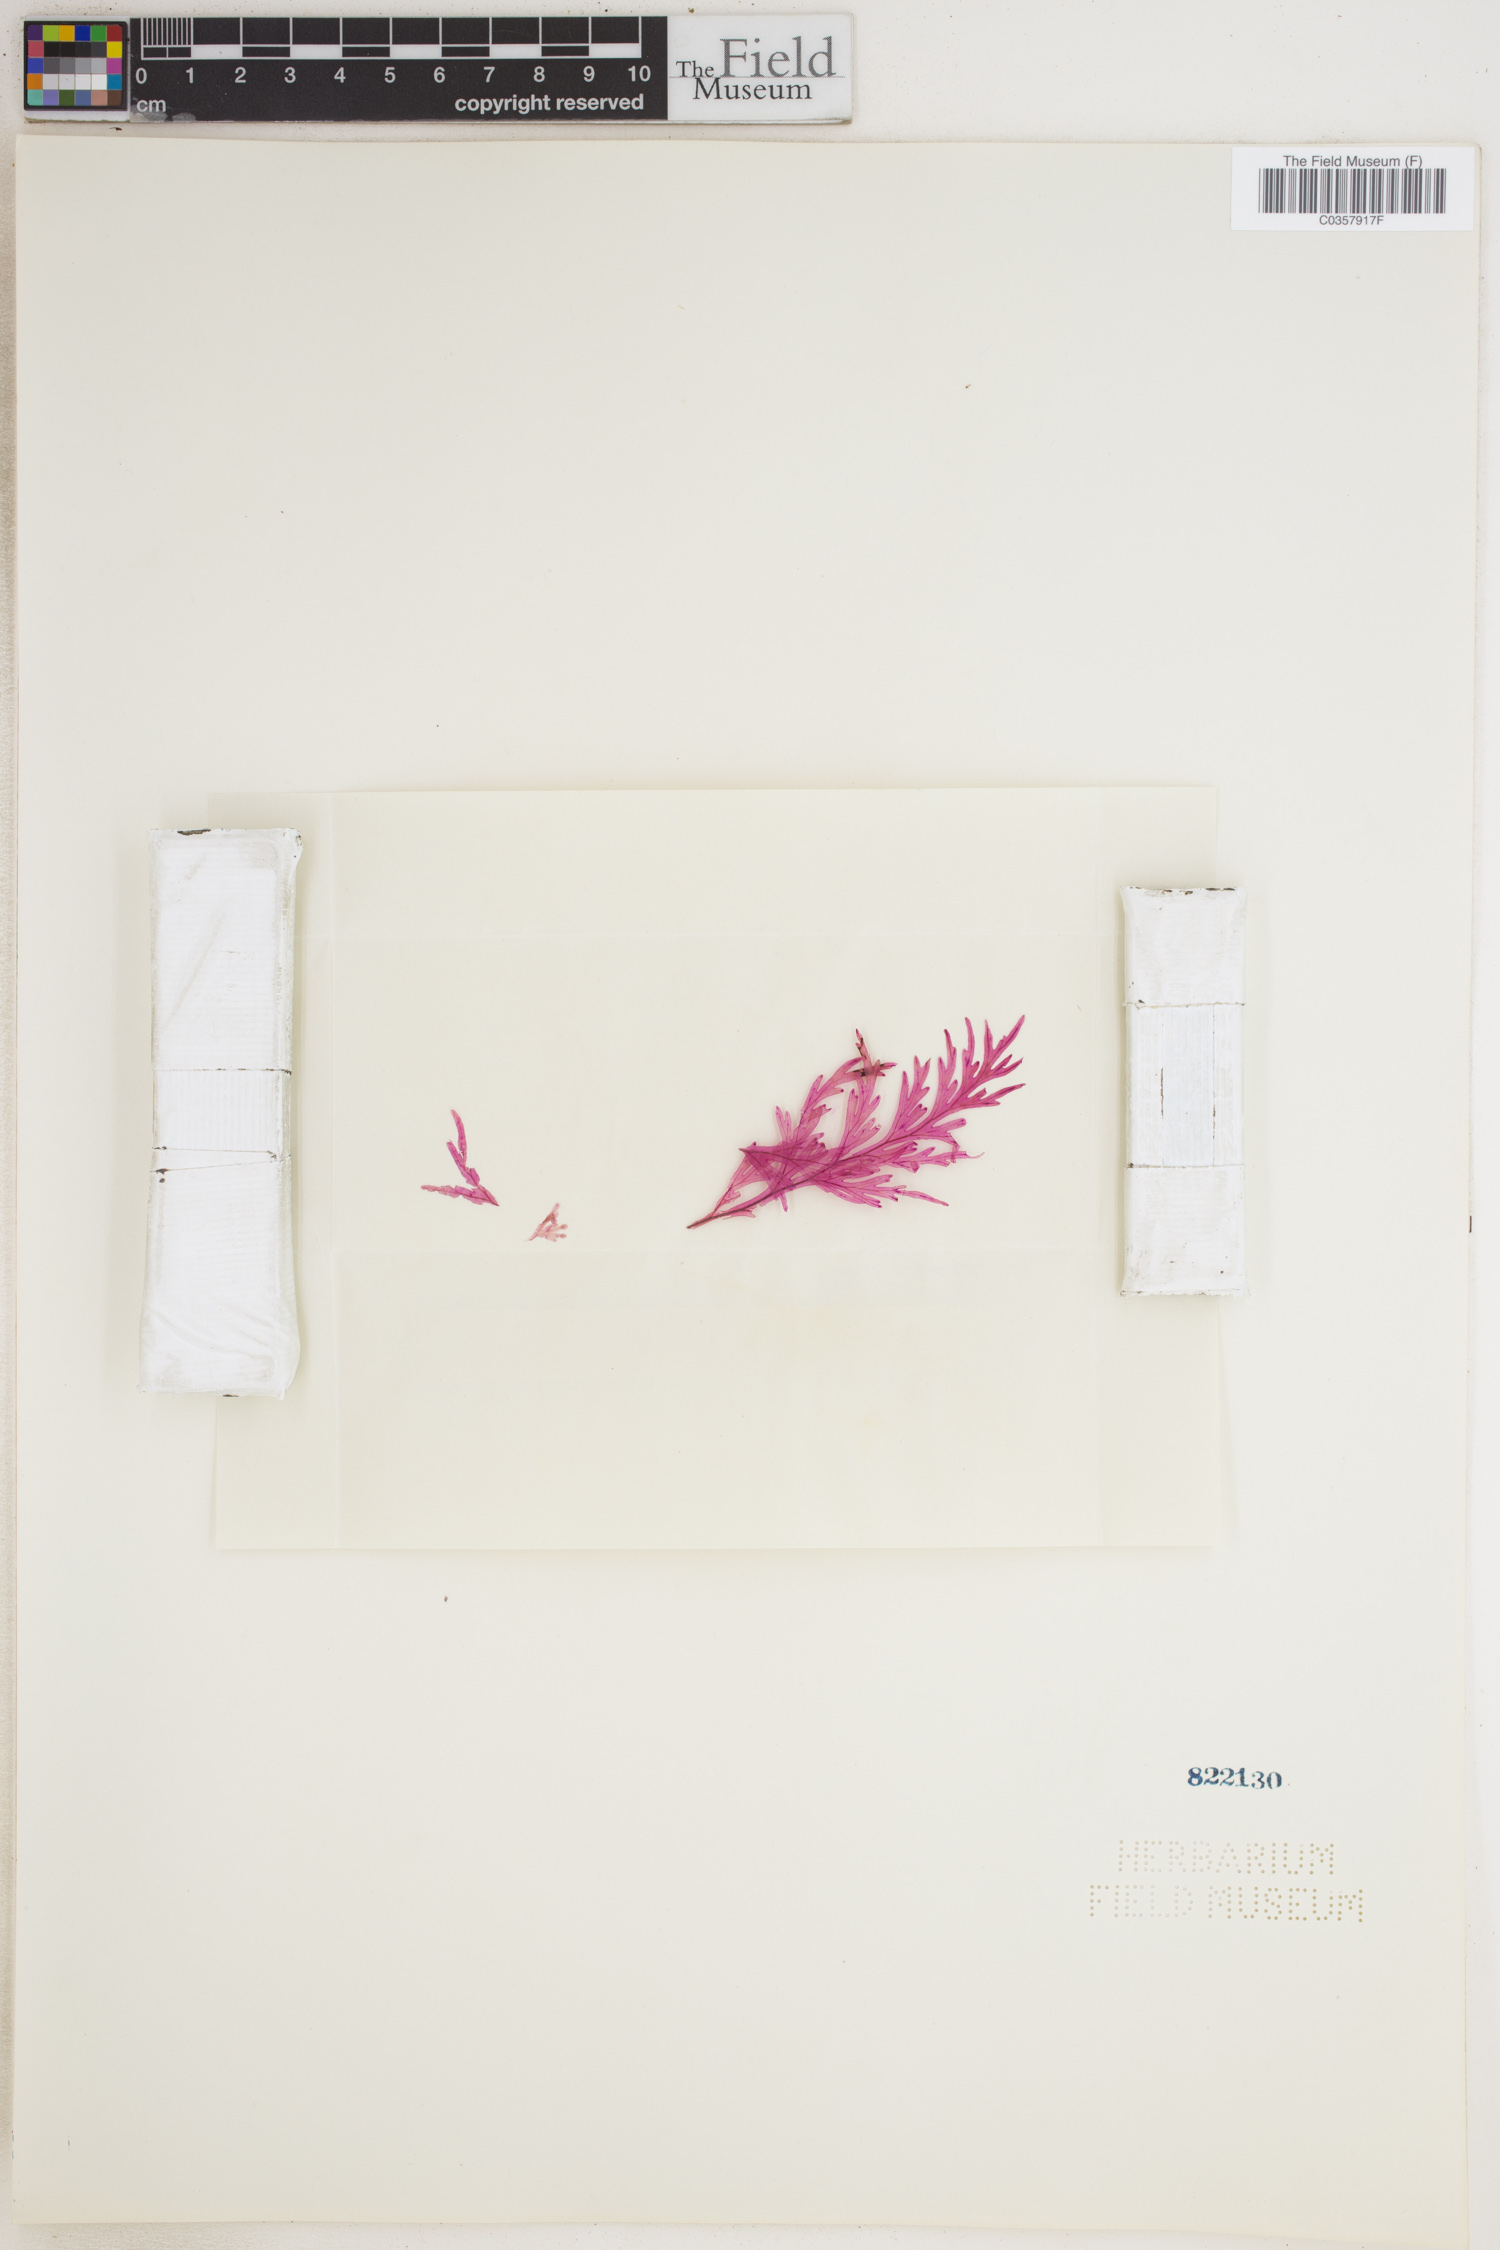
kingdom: Plantae
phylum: Tracheophyta
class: Polypodiopsida
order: Hymenophyllales
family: Hymenophyllaceae
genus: Hymenophyllum
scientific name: Hymenophyllum dilatatum
